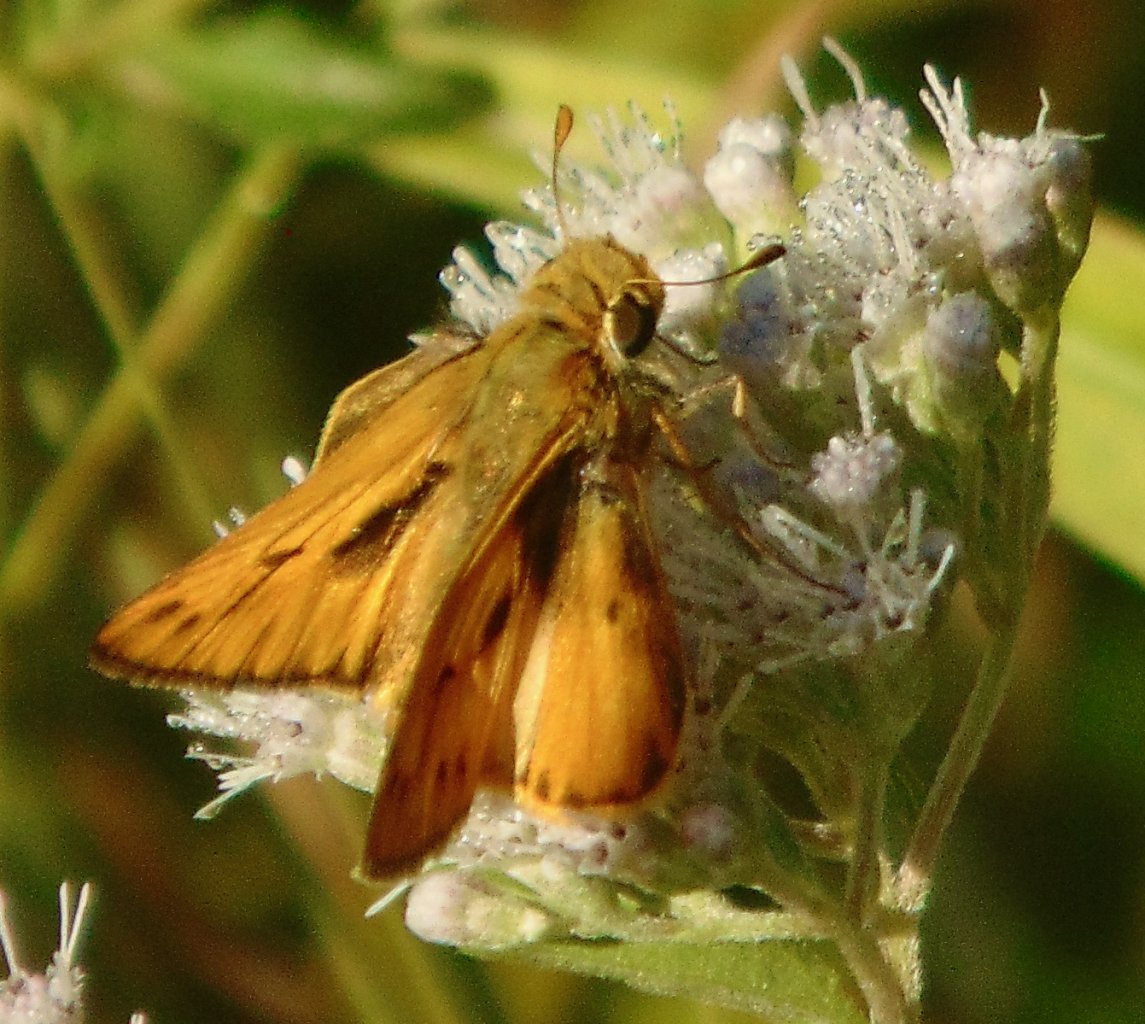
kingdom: Animalia
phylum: Arthropoda
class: Insecta
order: Lepidoptera
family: Hesperiidae
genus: Hylephila
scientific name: Hylephila phyleus
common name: Fiery Skipper
